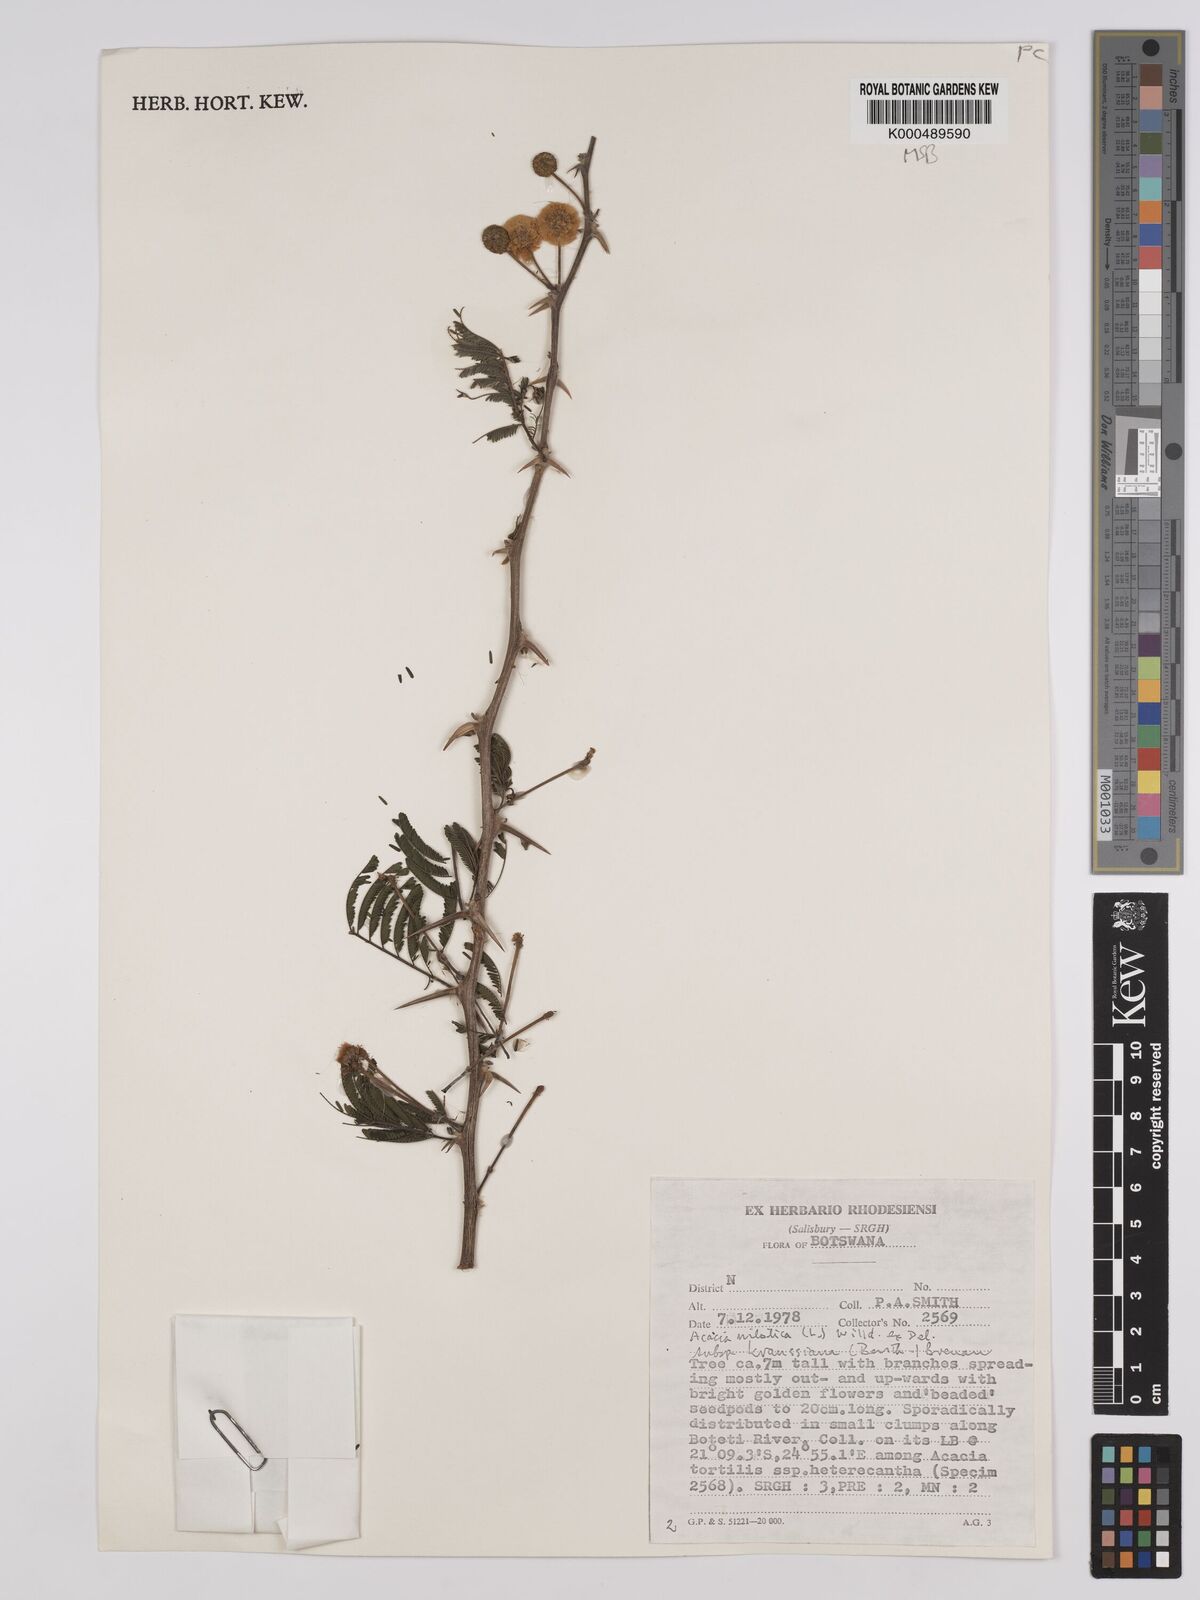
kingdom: Plantae
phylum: Tracheophyta
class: Magnoliopsida
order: Fabales
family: Fabaceae
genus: Vachellia
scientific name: Vachellia nilotica
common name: Arabic gumtree
